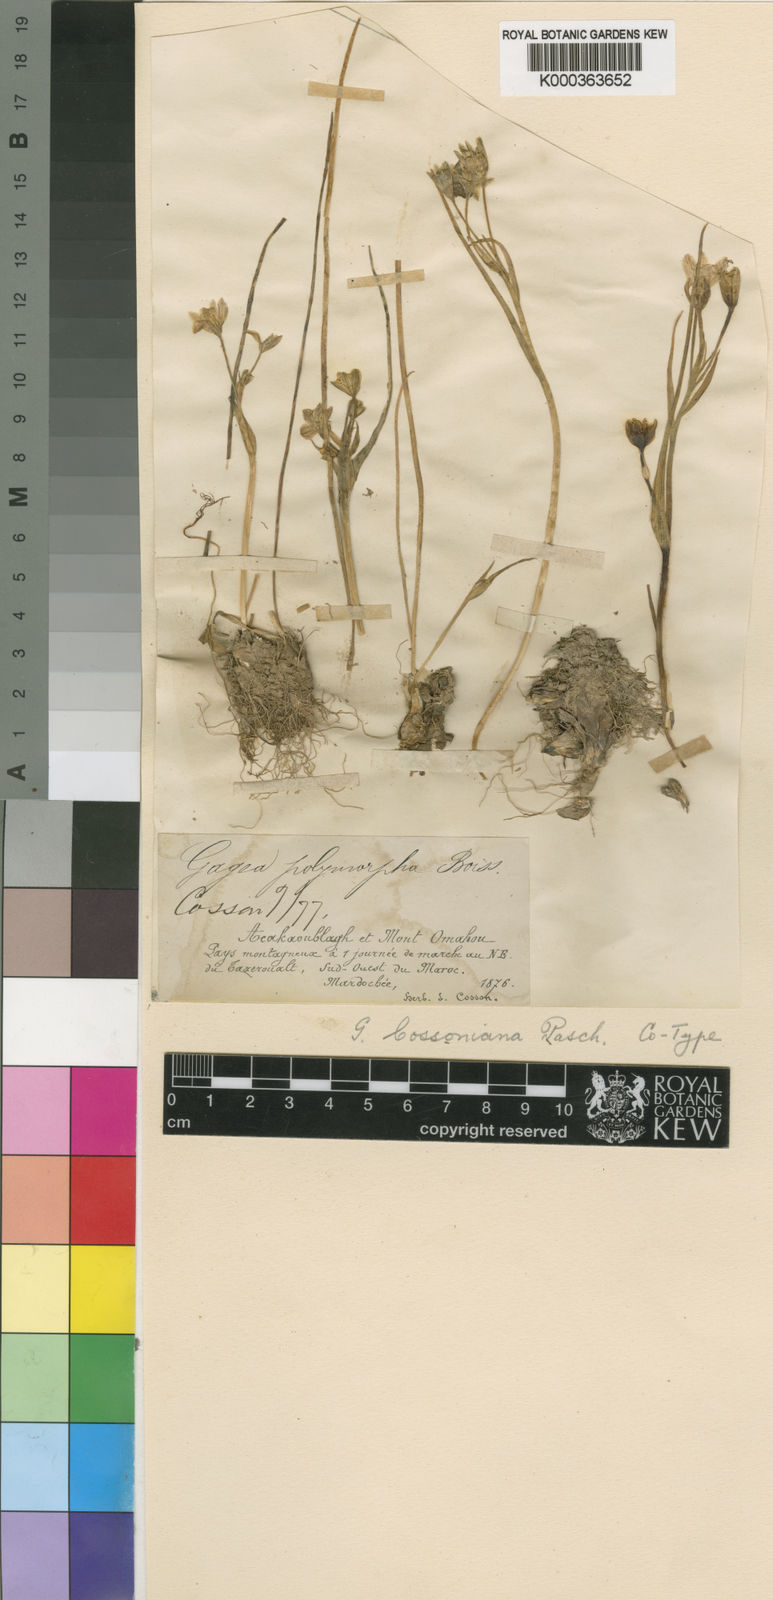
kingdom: Plantae
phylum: Tracheophyta
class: Liliopsida
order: Liliales
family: Liliaceae
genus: Gagea
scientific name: Gagea algeriensis
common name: Algerian gagea
